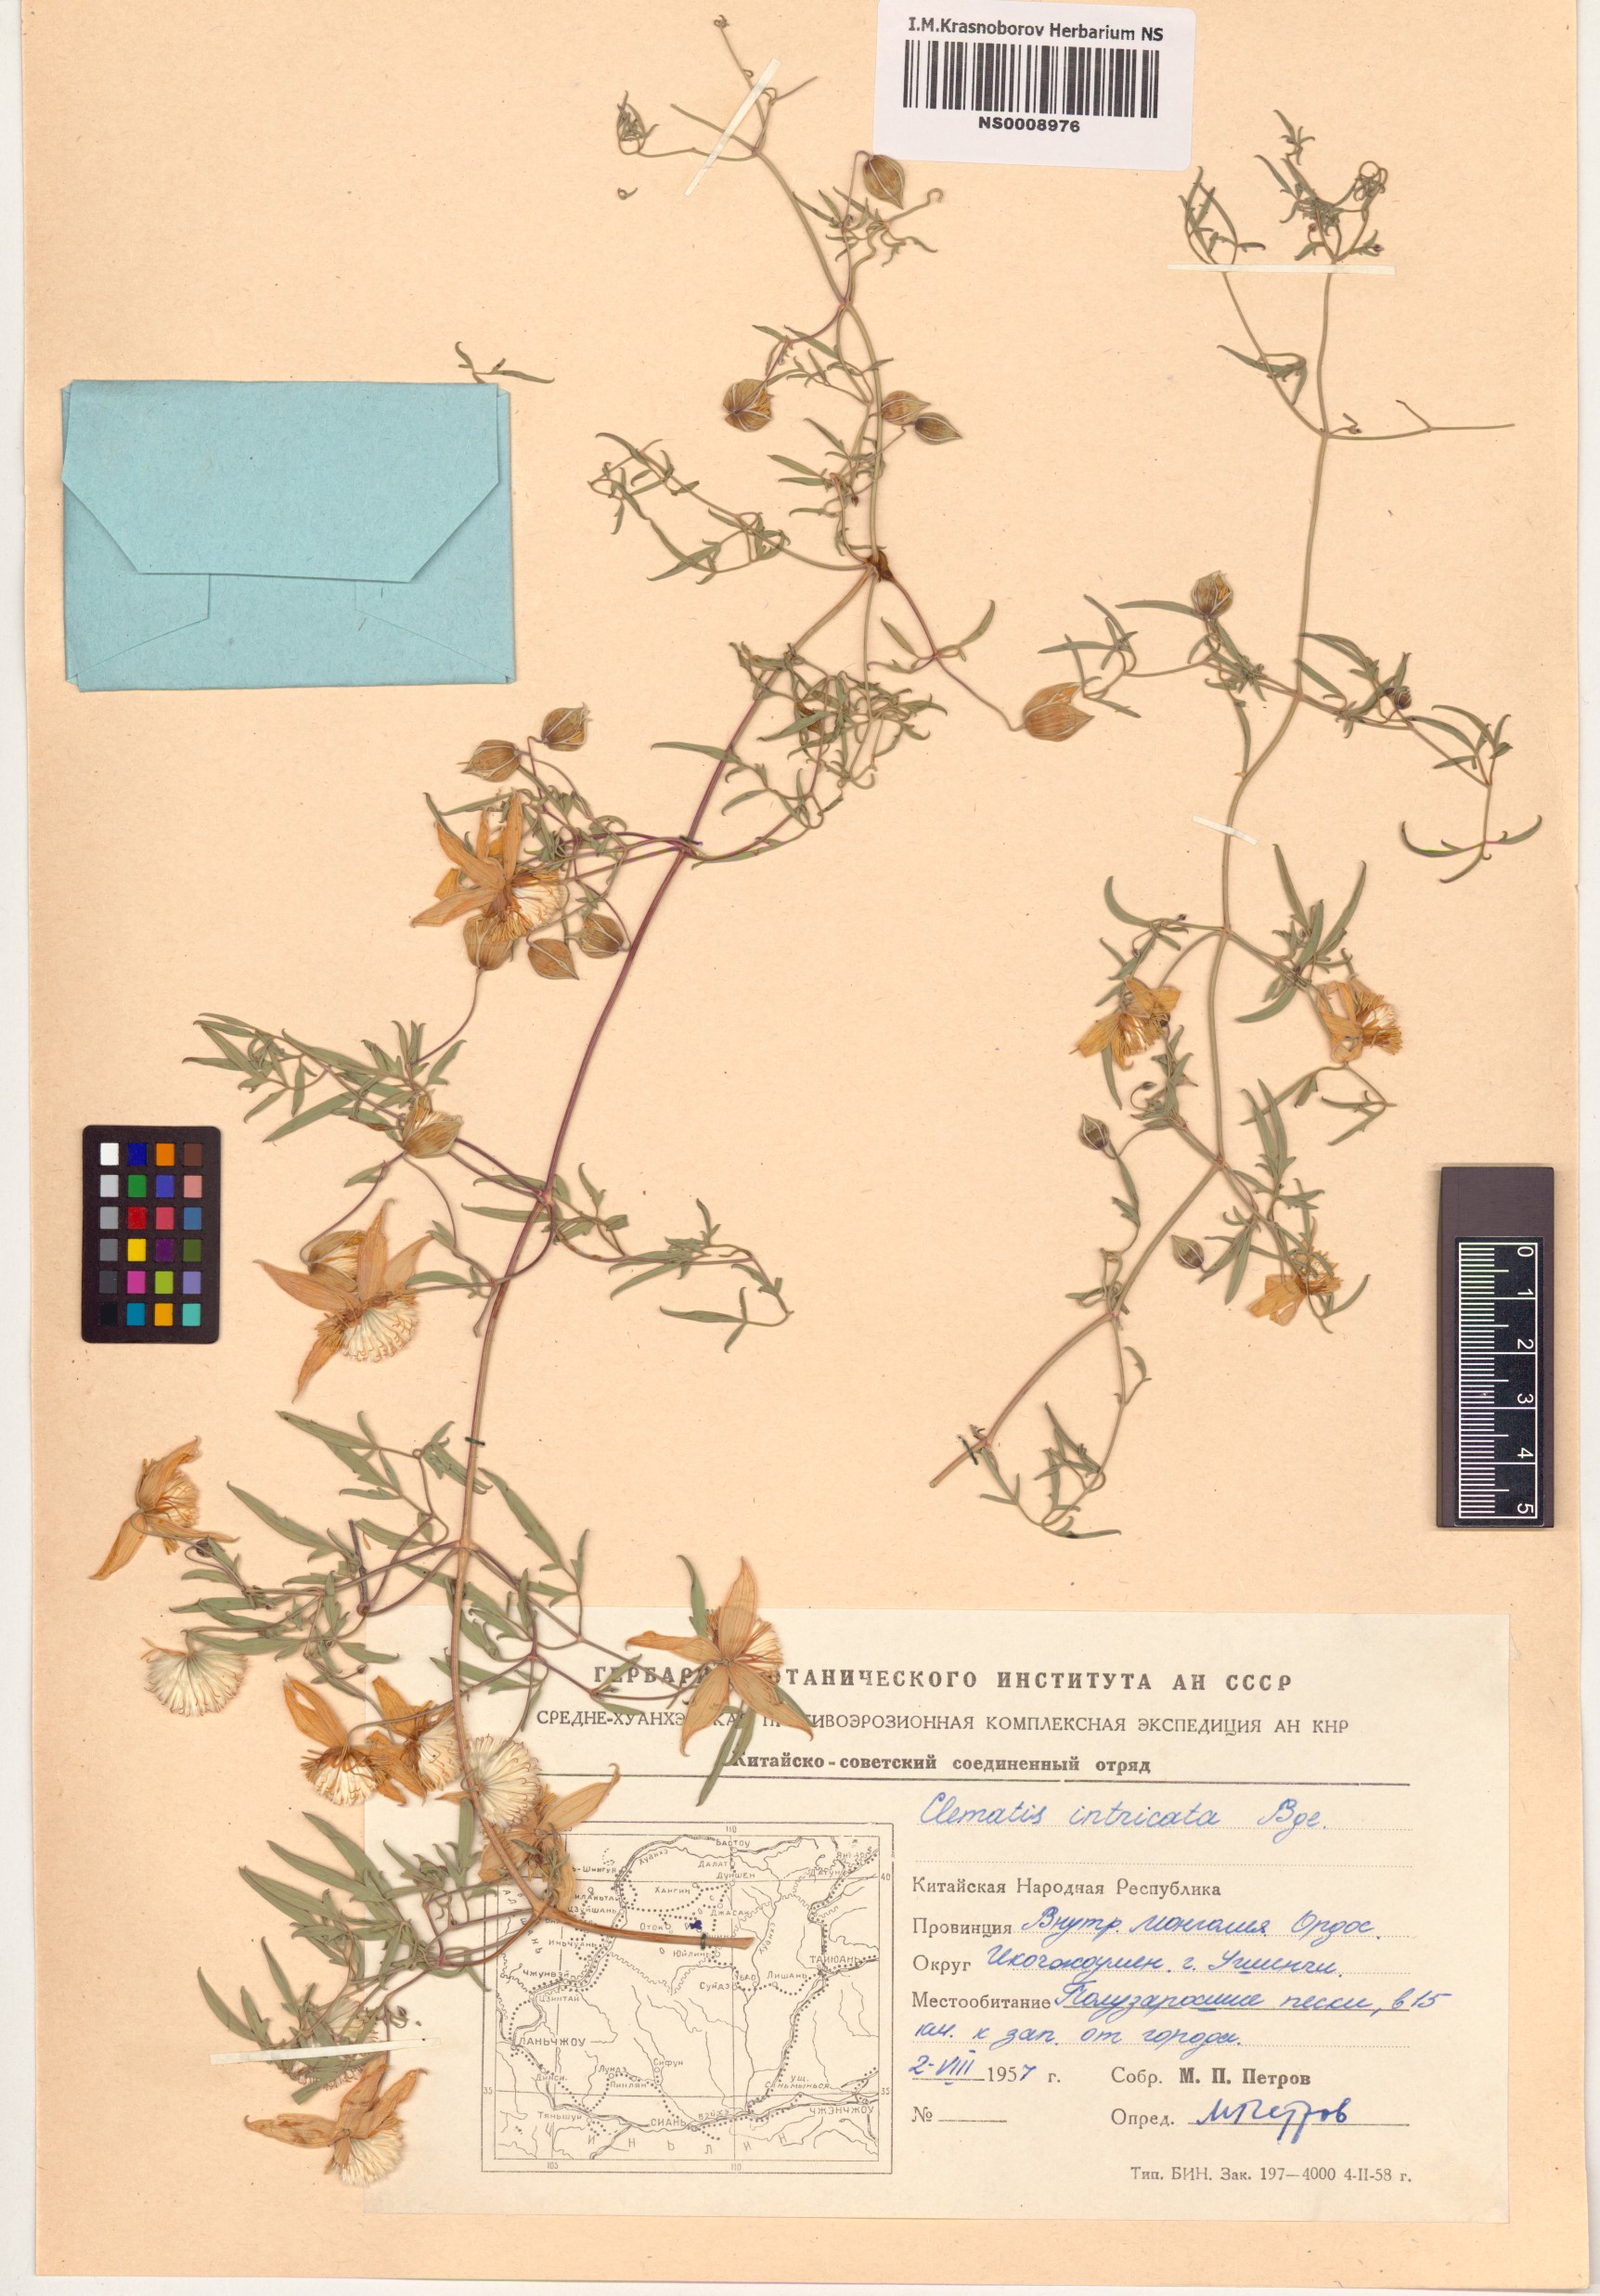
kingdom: Plantae
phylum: Tracheophyta
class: Magnoliopsida
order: Ranunculales
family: Ranunculaceae
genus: Clematis
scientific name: Clematis intricata
